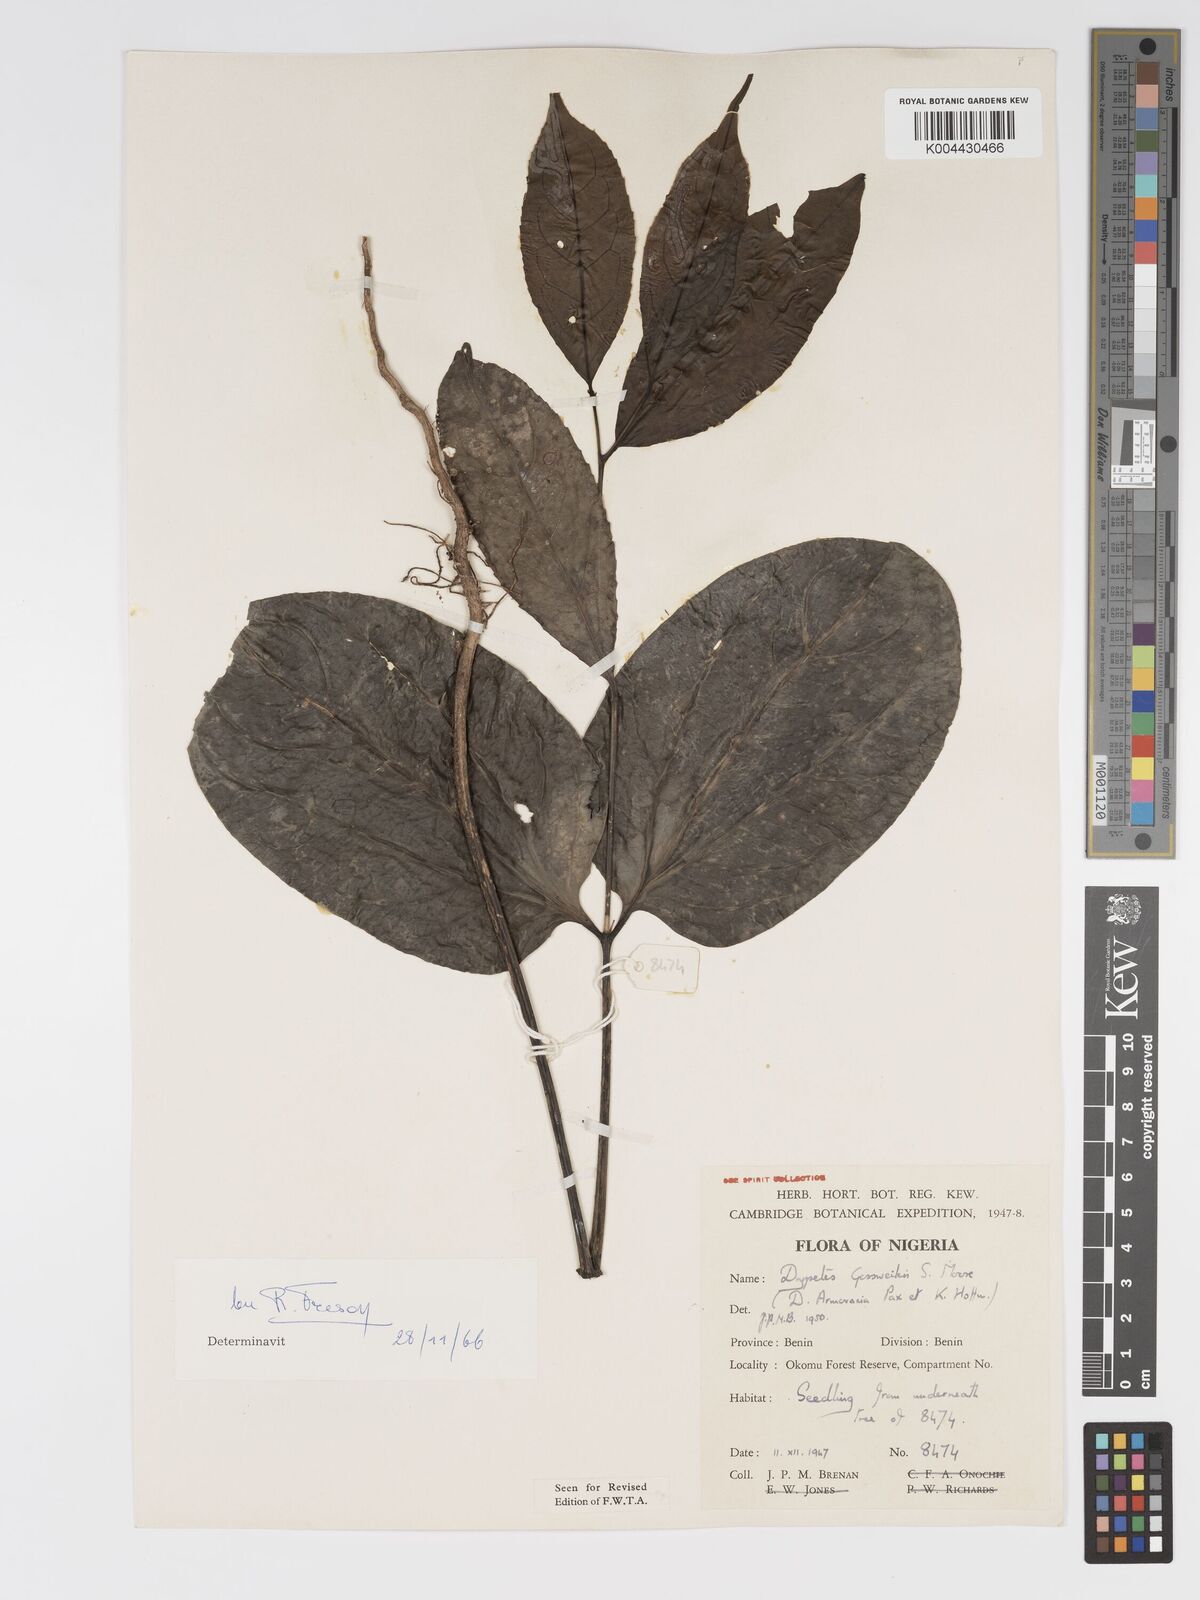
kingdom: Plantae
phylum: Tracheophyta
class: Magnoliopsida
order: Malpighiales
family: Putranjivaceae
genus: Drypetes
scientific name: Drypetes gossweileri
